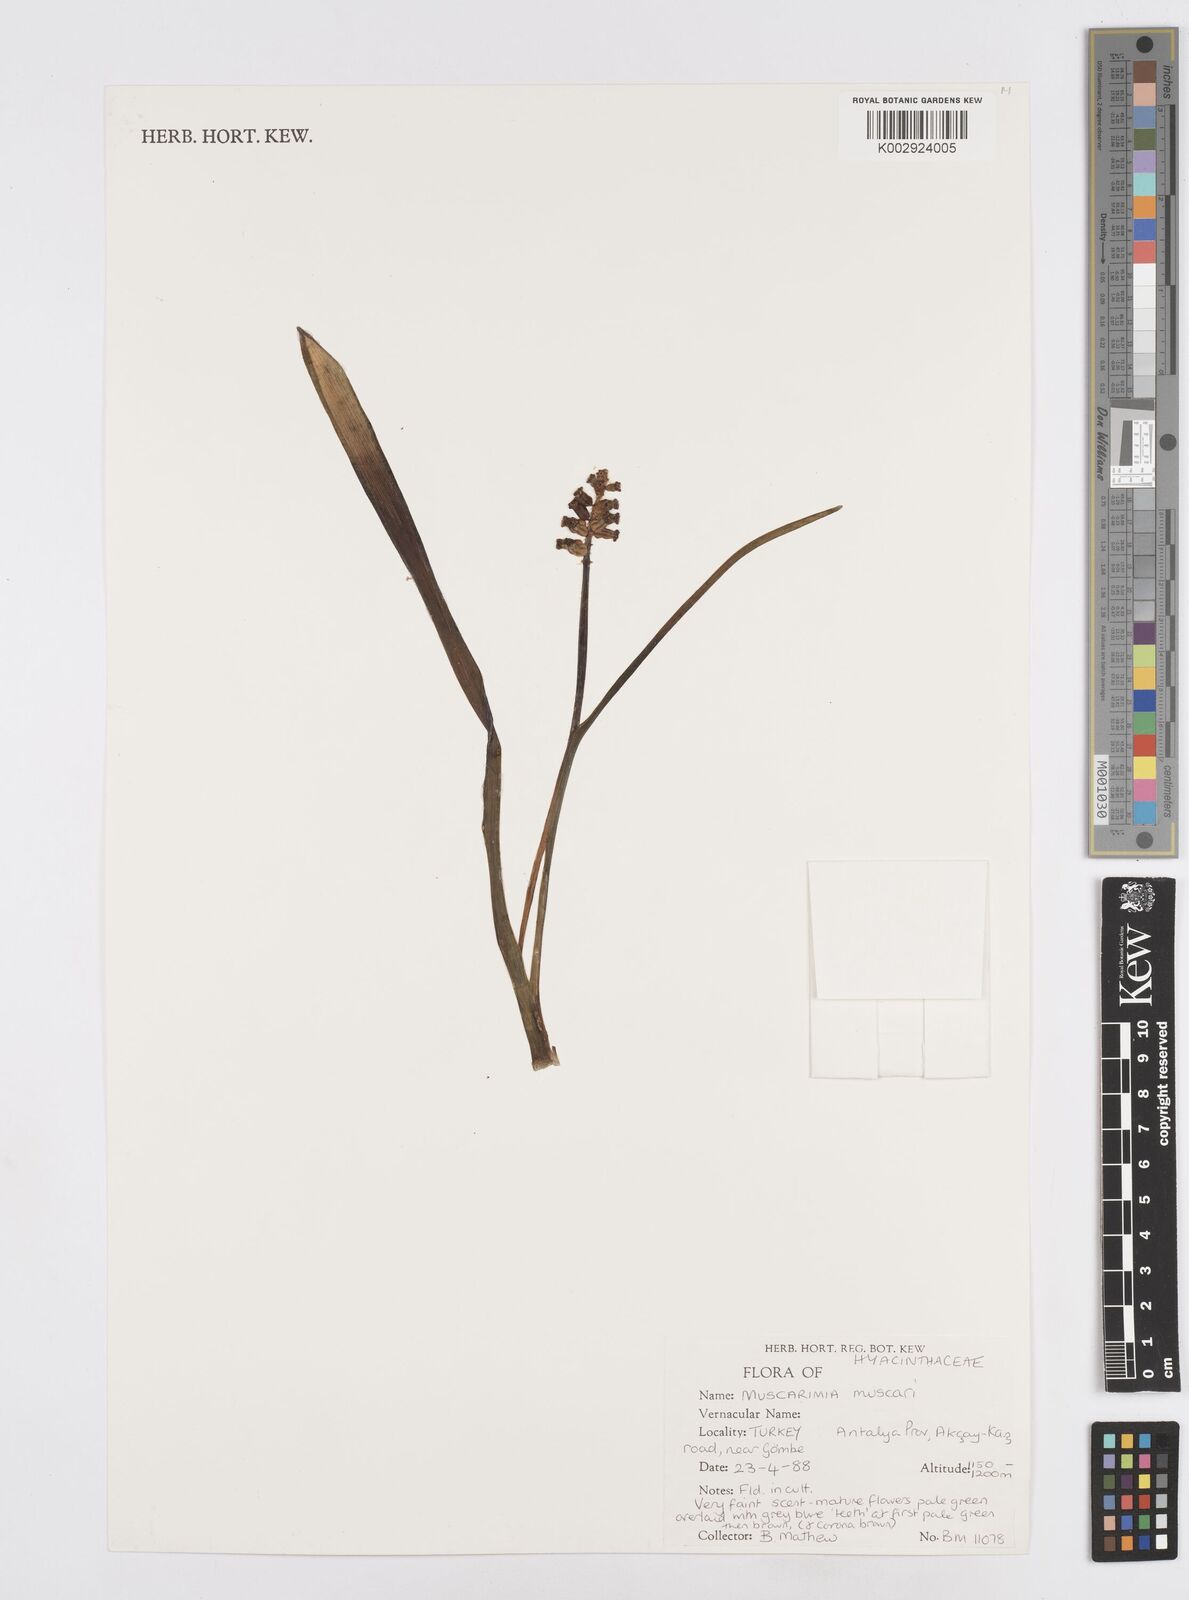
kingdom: Plantae
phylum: Tracheophyta
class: Liliopsida
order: Asparagales
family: Asparagaceae
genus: Muscari
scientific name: Muscari
